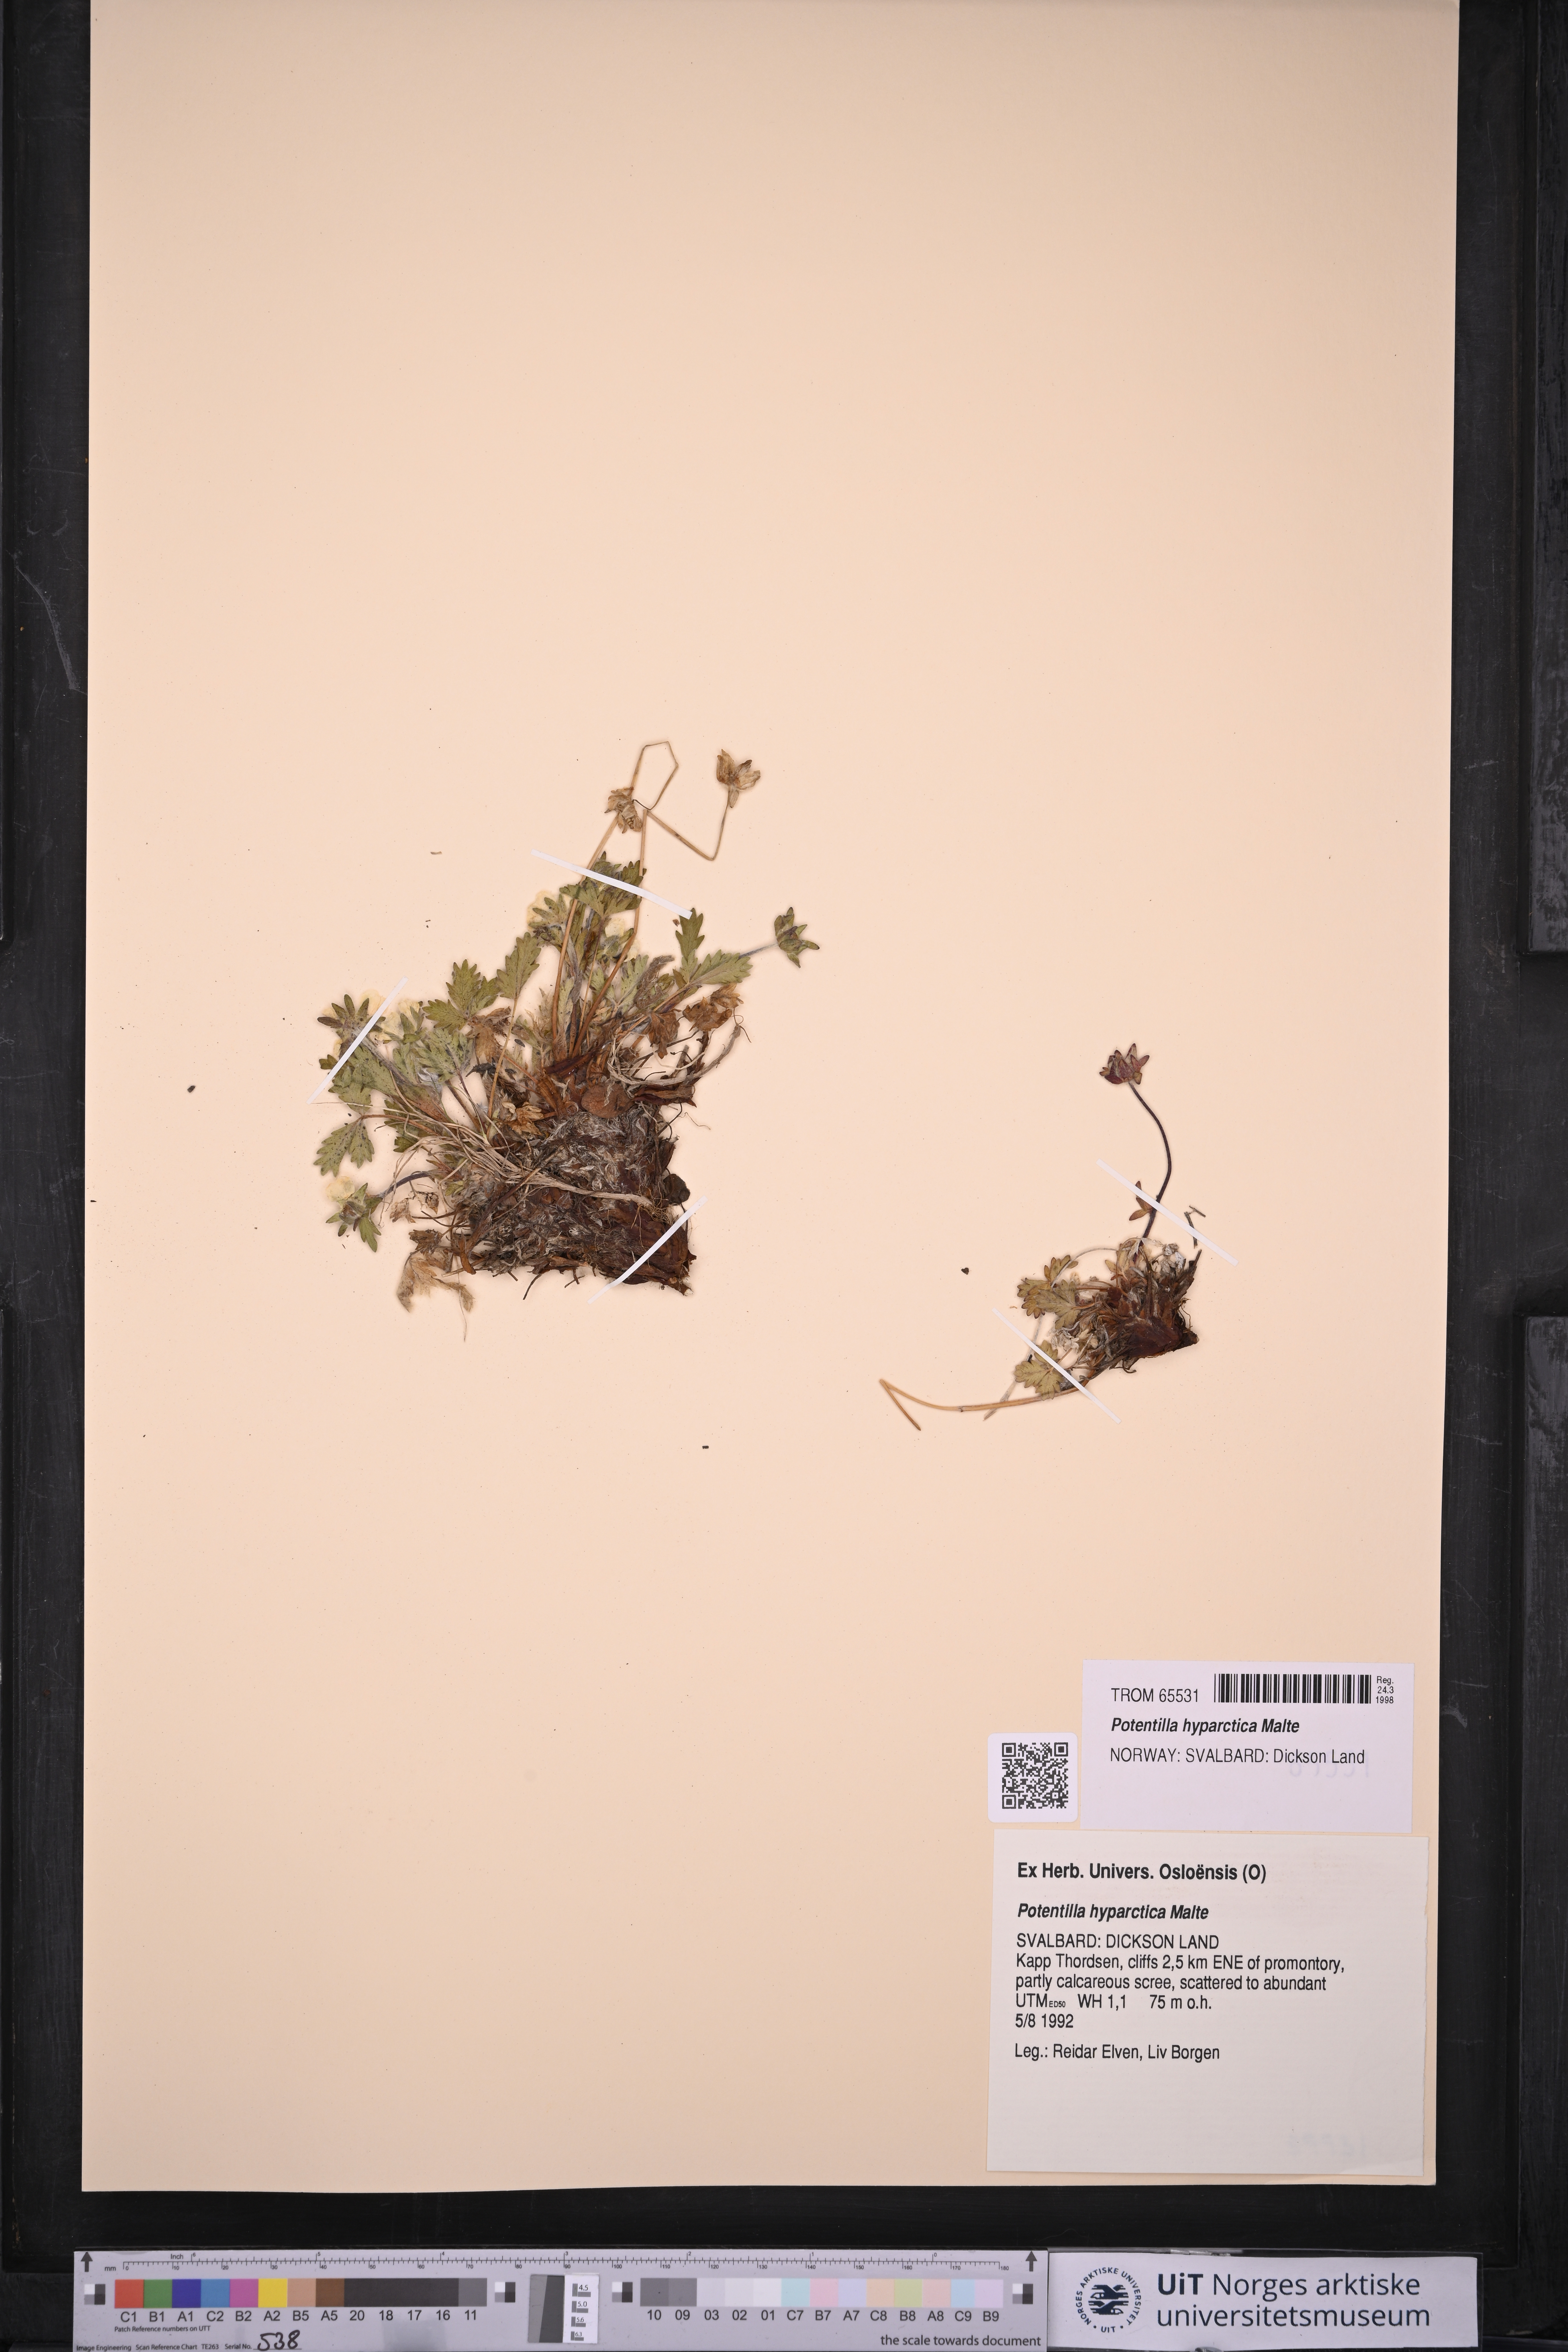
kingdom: Plantae
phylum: Tracheophyta
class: Magnoliopsida
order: Rosales
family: Rosaceae
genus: Potentilla
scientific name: Potentilla hyparctica
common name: Arctic cinquefoil
